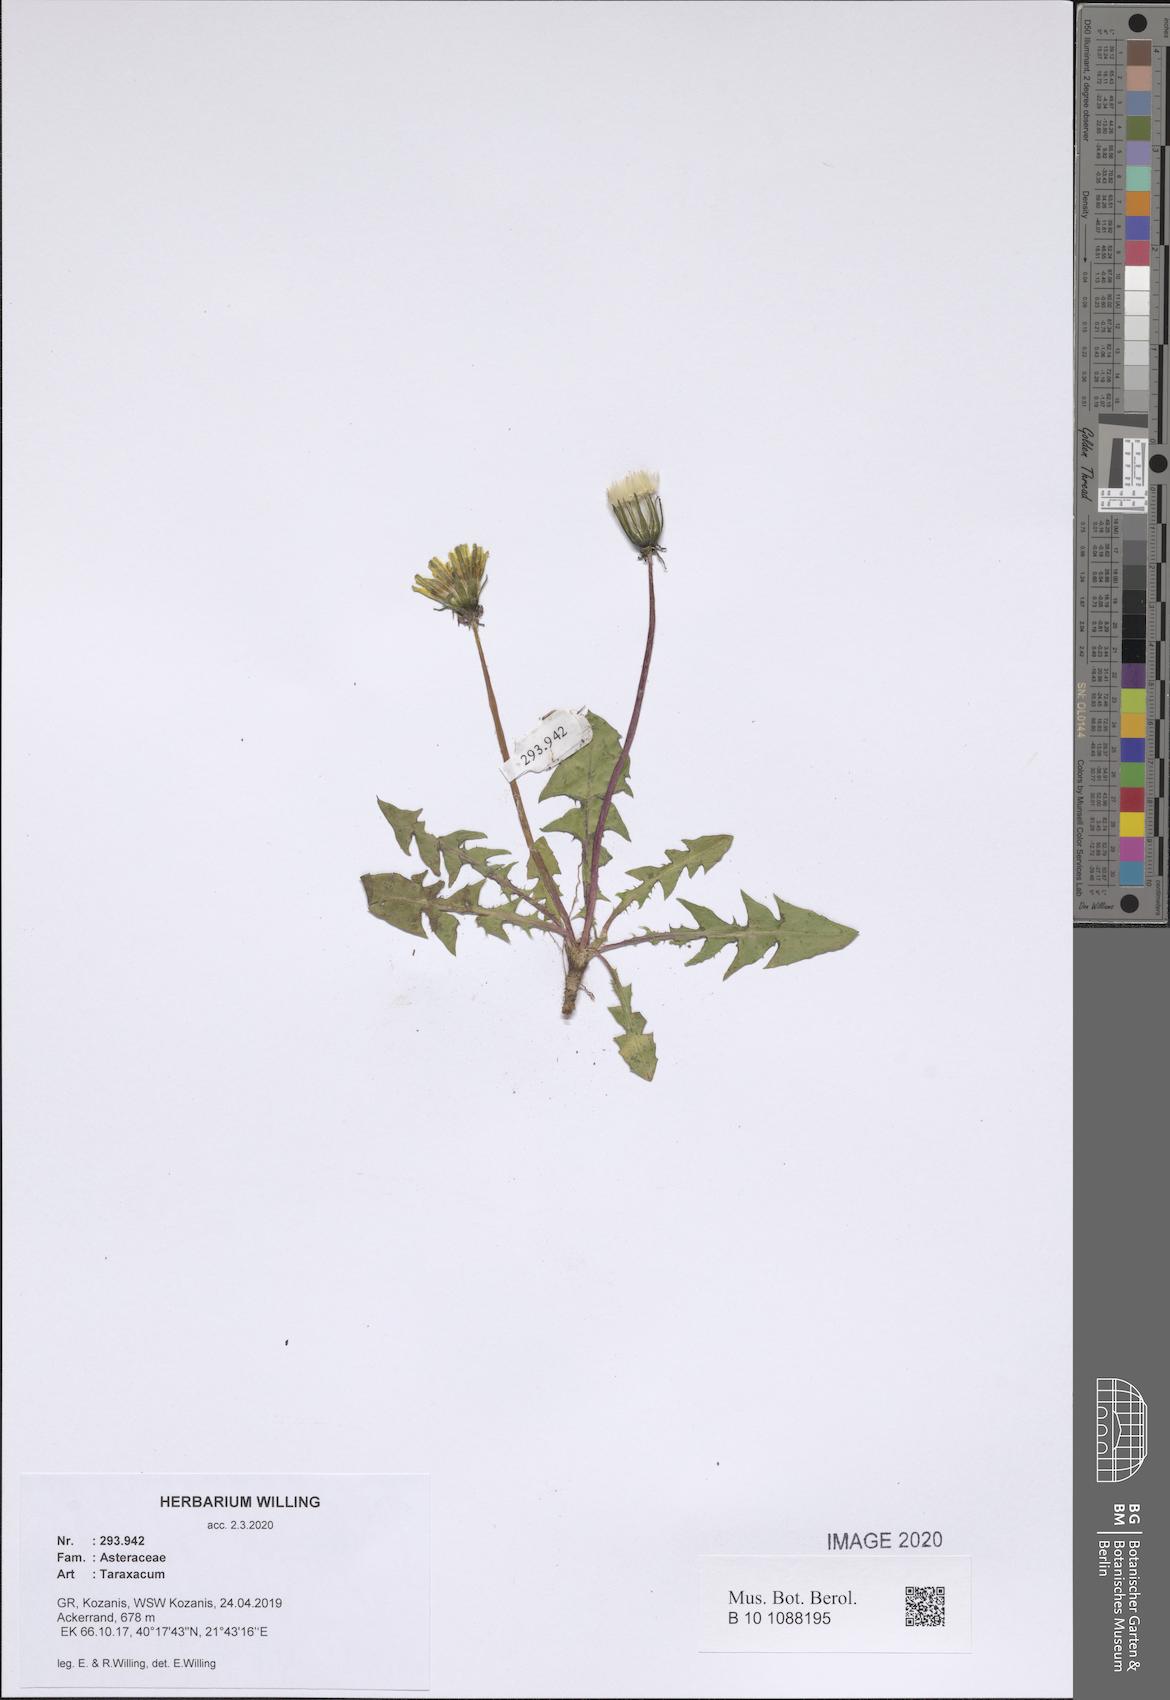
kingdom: Plantae
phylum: Tracheophyta
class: Magnoliopsida
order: Asterales
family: Asteraceae
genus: Taraxacum
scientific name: Taraxacum
